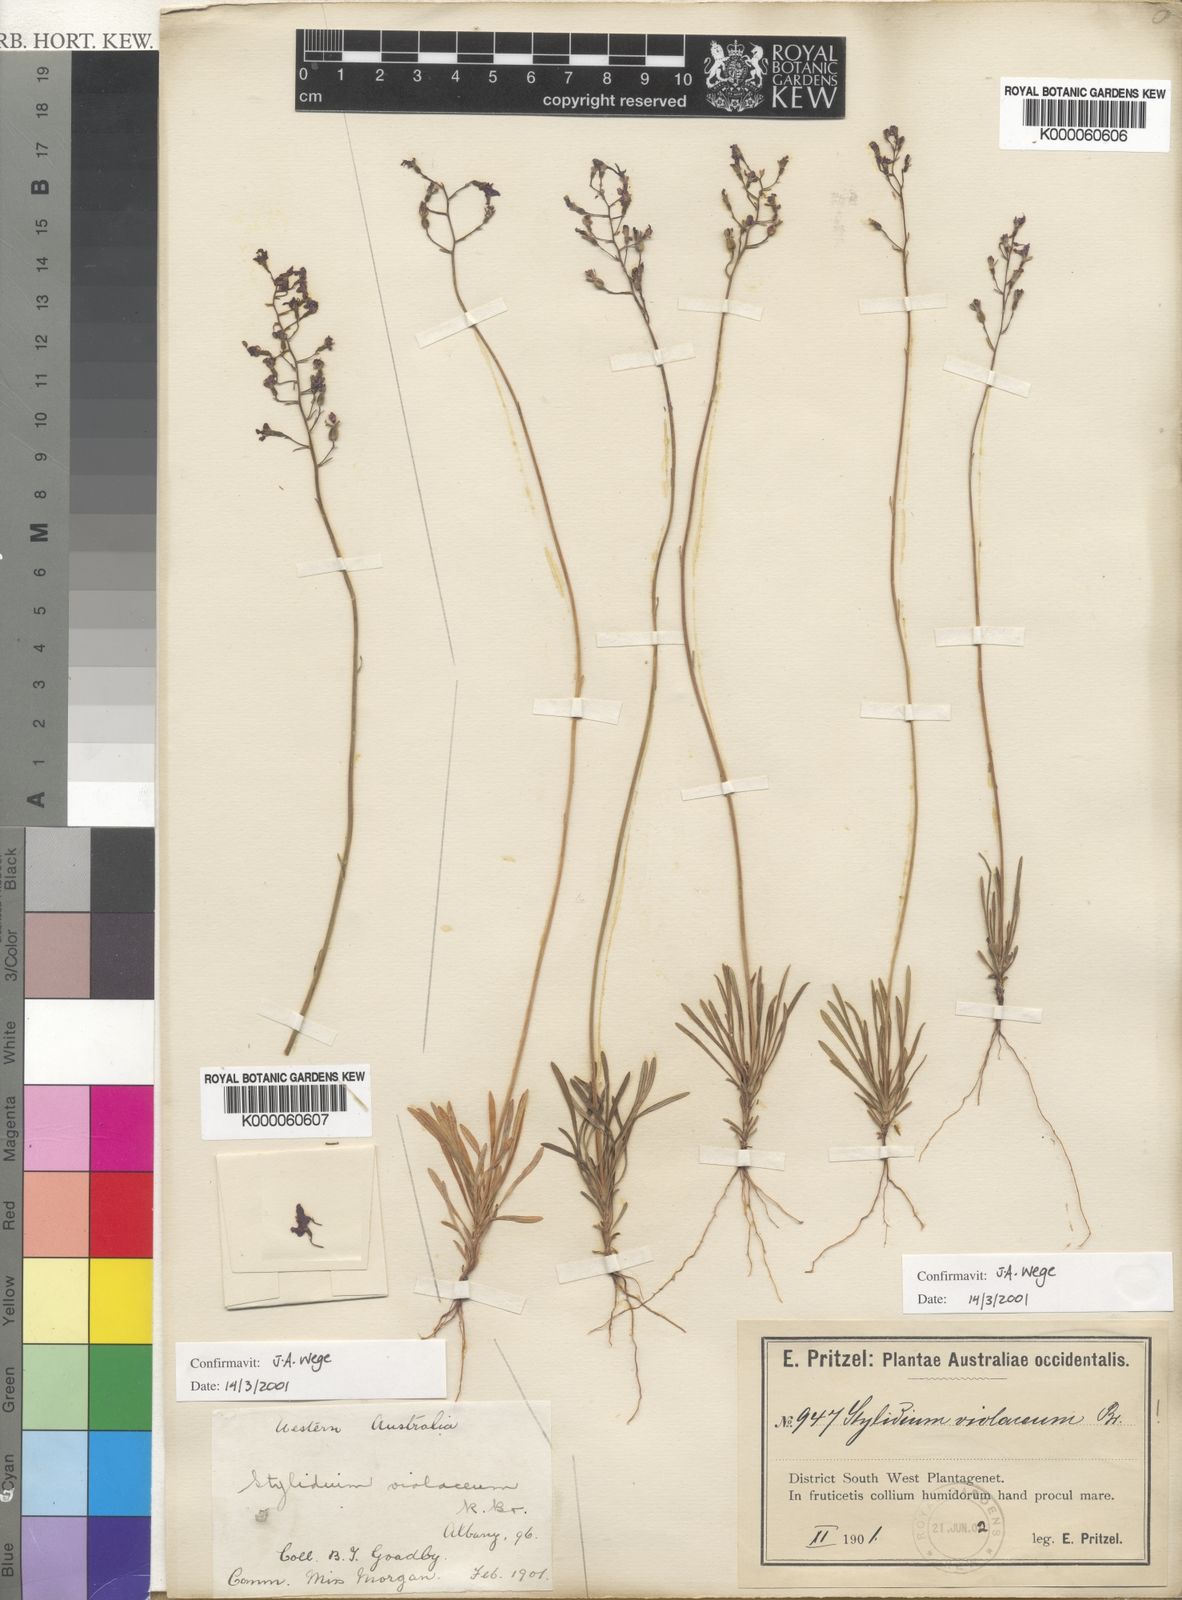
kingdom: Plantae
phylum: Tracheophyta
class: Magnoliopsida
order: Asterales
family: Stylidiaceae
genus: Stylidium
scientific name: Stylidium violaceum
